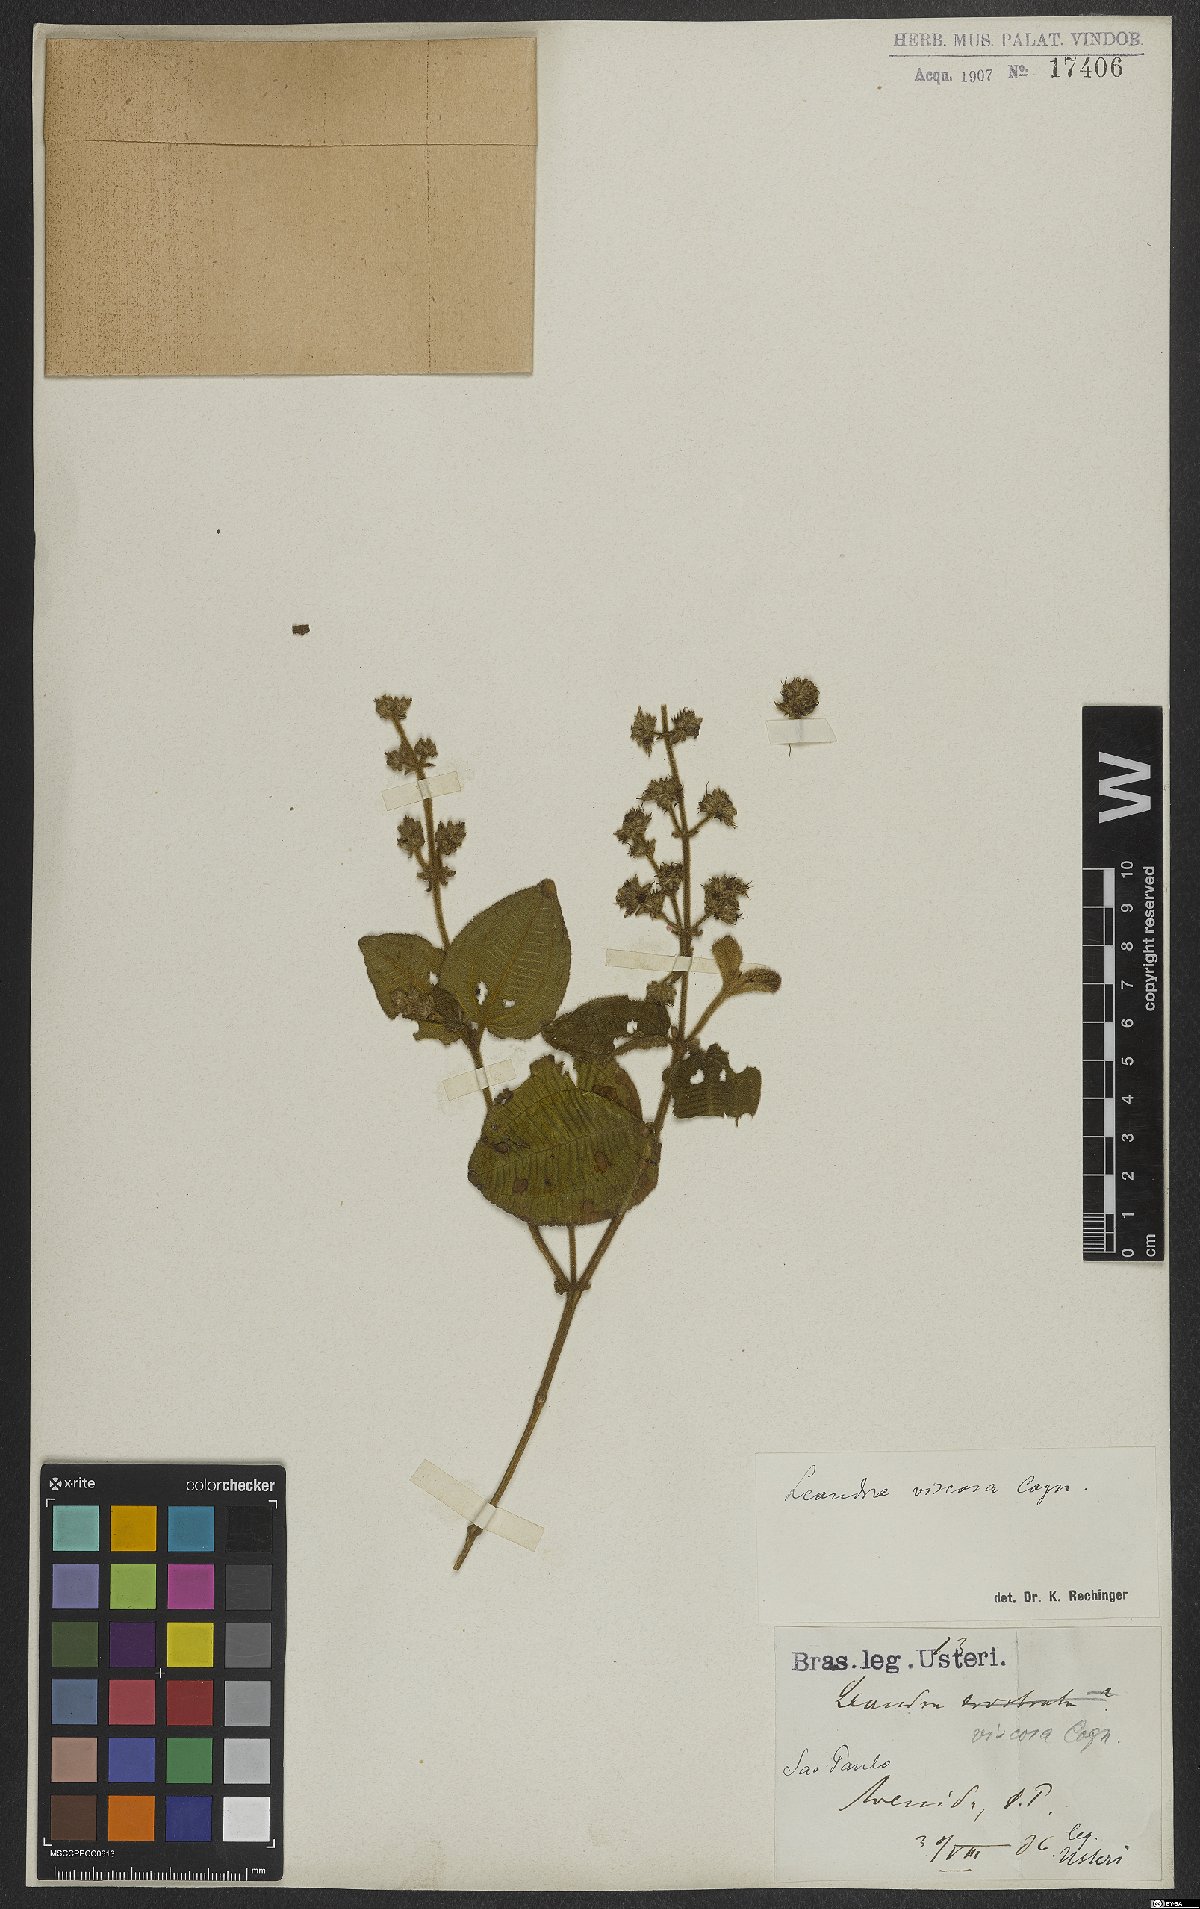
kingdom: Plantae
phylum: Tracheophyta
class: Magnoliopsida
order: Myrtales
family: Melastomataceae
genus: Miconia
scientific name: Miconia viscosa
